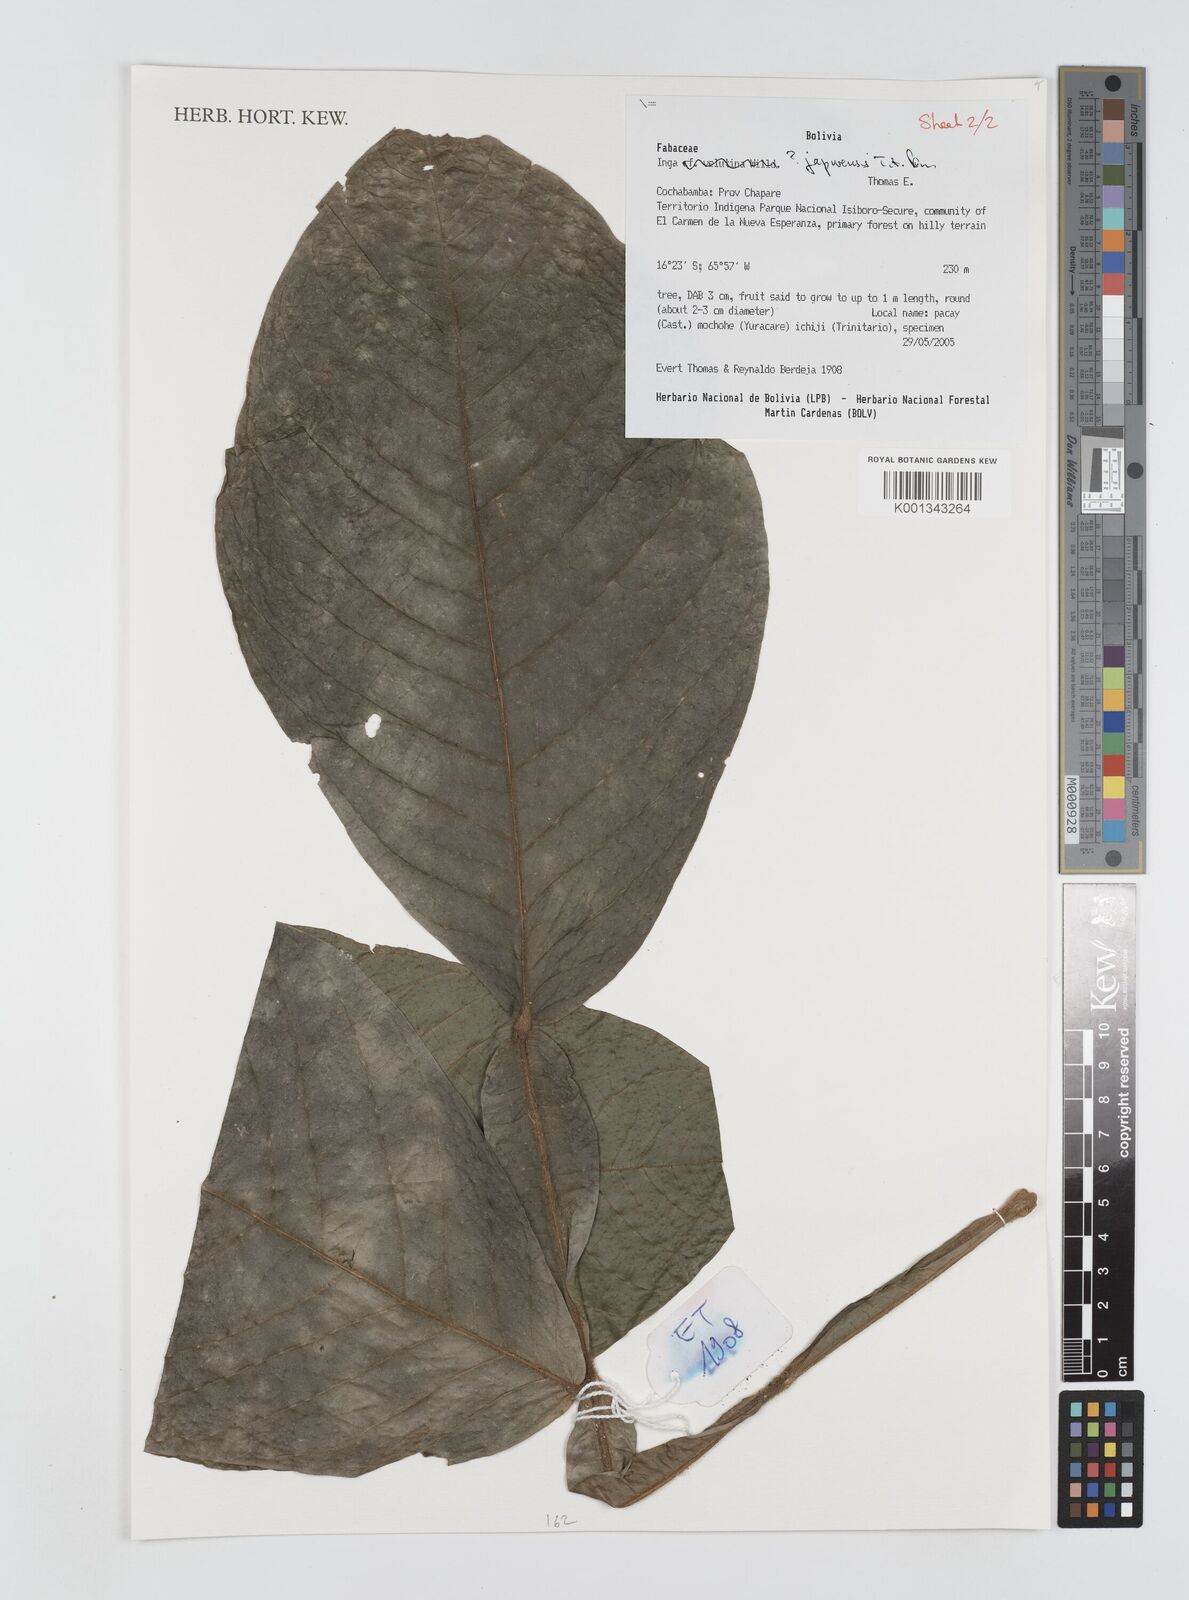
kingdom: Plantae
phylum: Tracheophyta
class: Magnoliopsida
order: Fabales
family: Fabaceae
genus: Inga
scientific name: Inga japurensis
